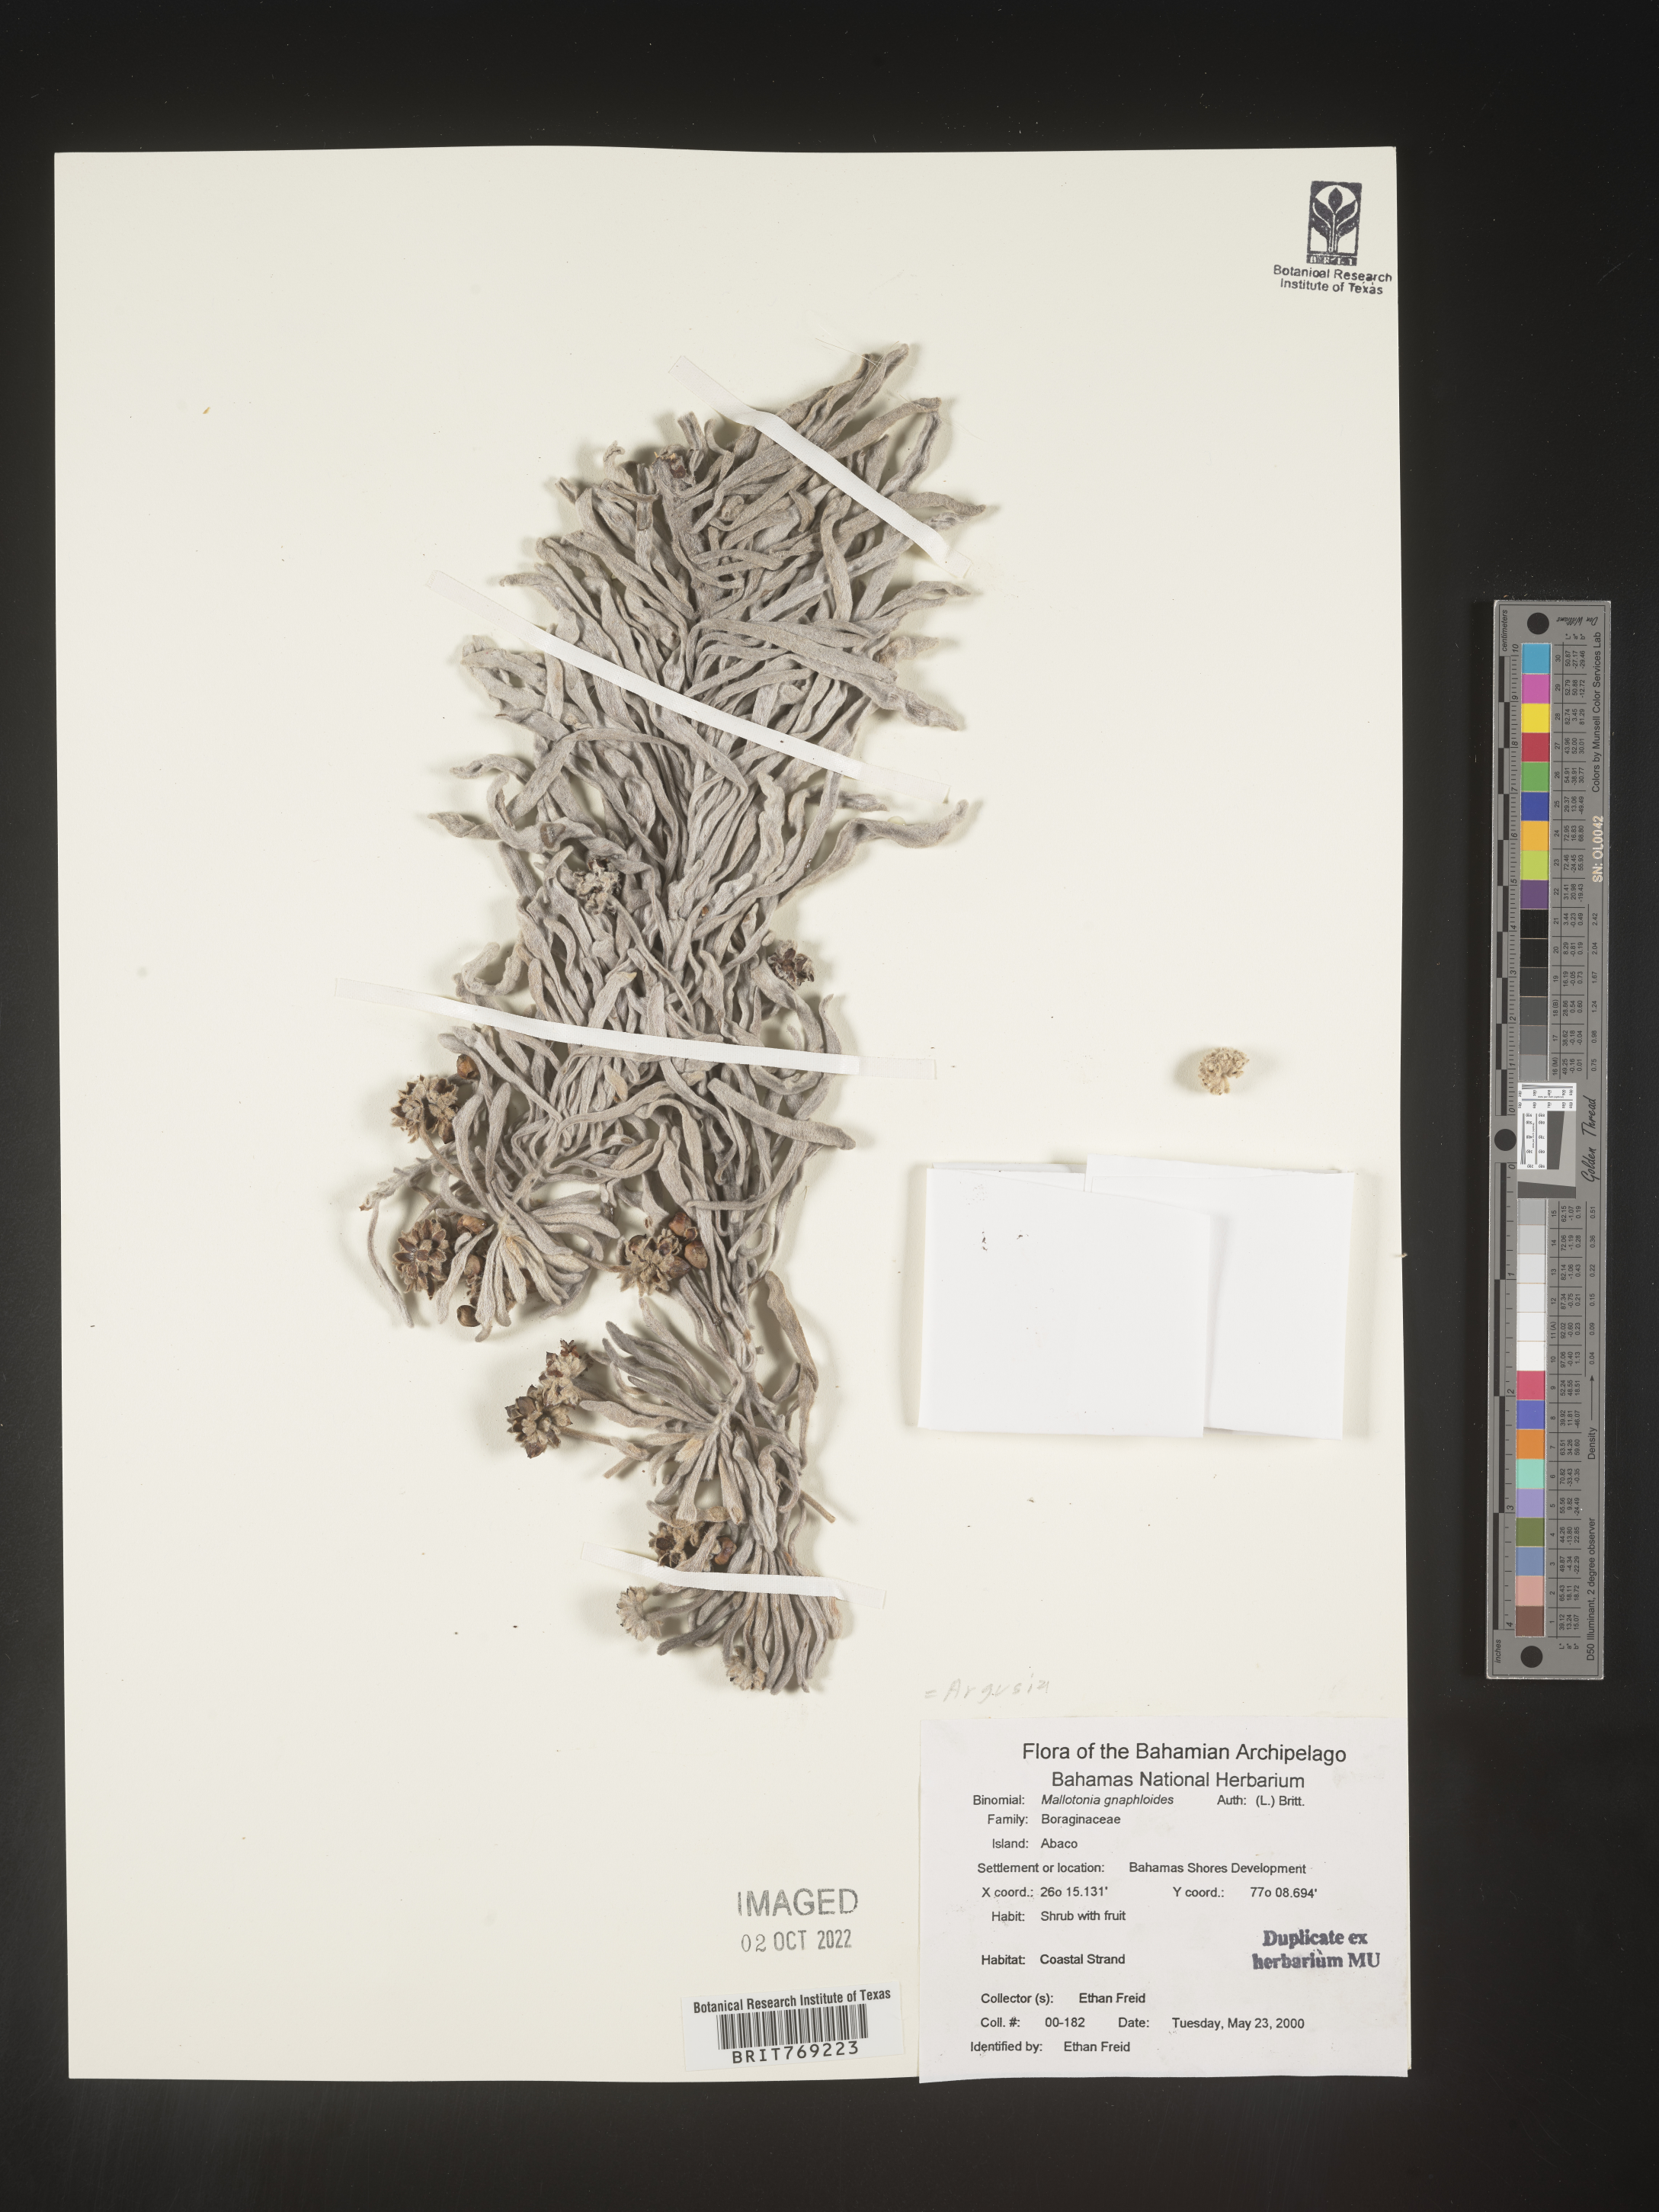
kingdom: Plantae
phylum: Tracheophyta
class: Magnoliopsida
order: Boraginales
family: Heliotropiaceae
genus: Tournefortia
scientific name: Tournefortia
